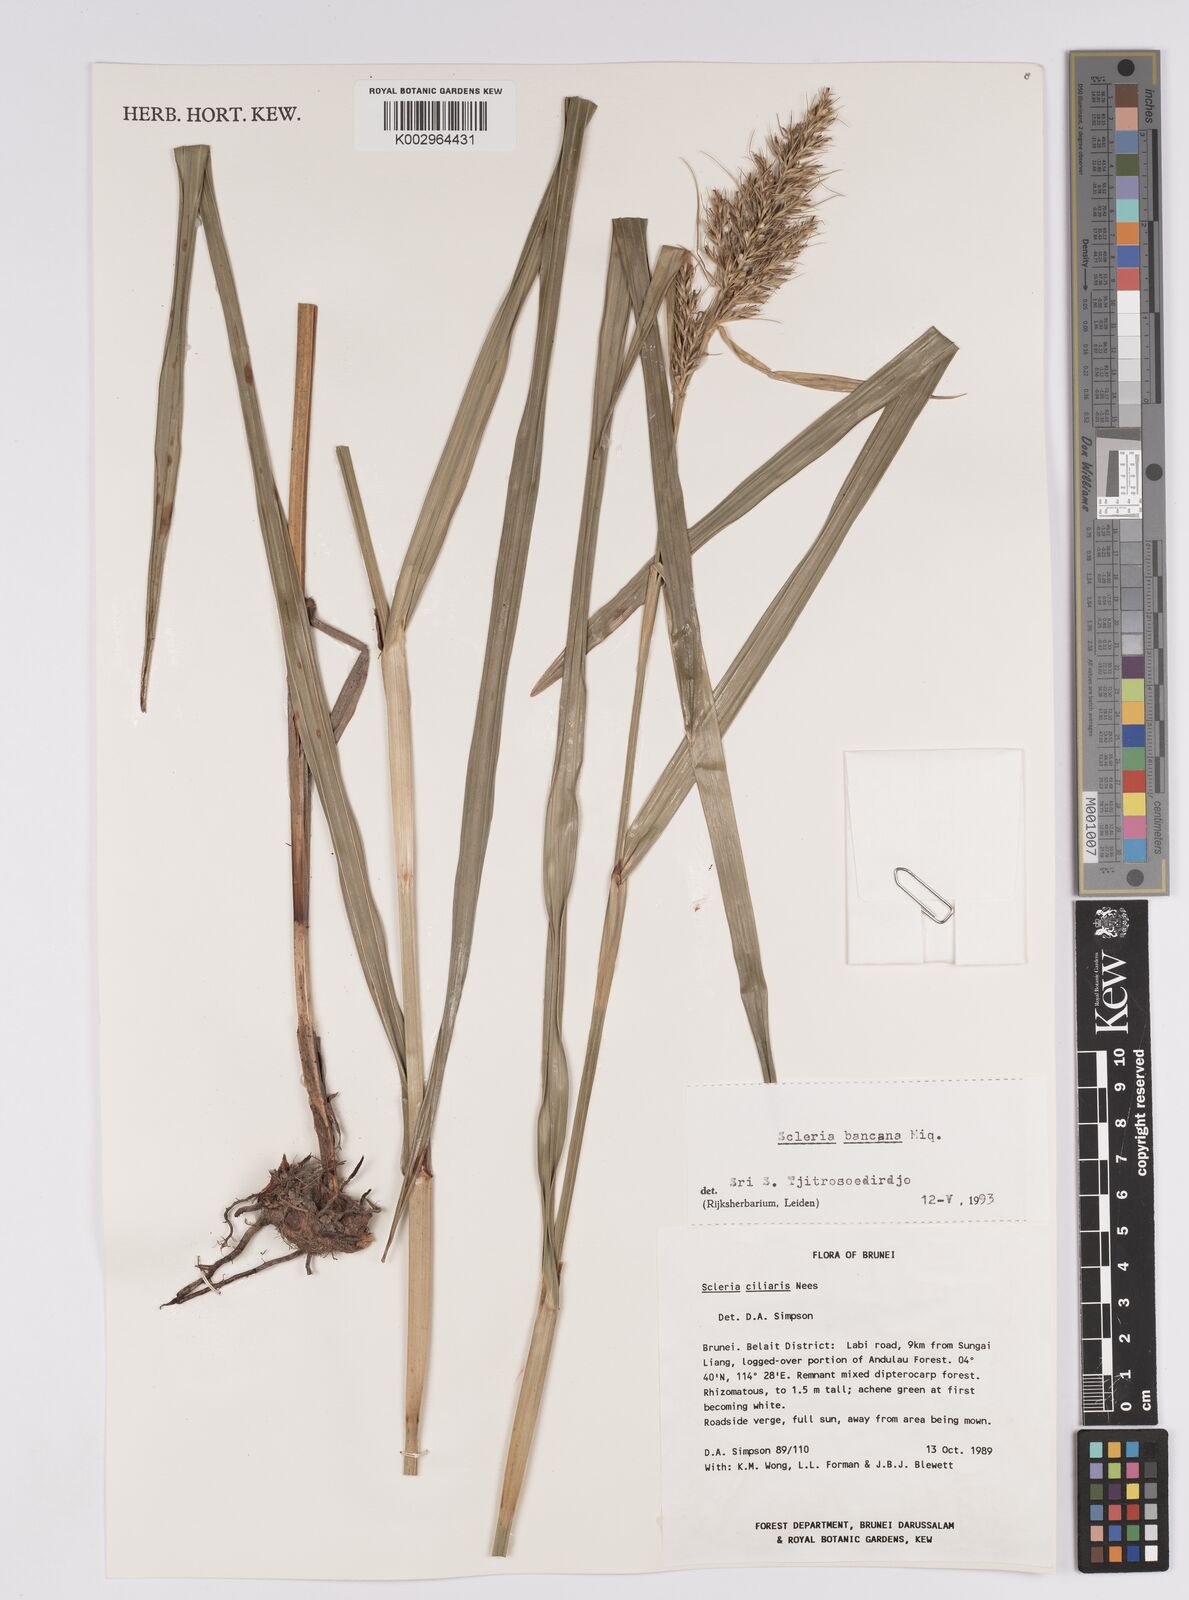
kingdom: Plantae
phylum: Tracheophyta
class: Liliopsida
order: Poales
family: Cyperaceae
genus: Scleria
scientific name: Scleria ciliaris
